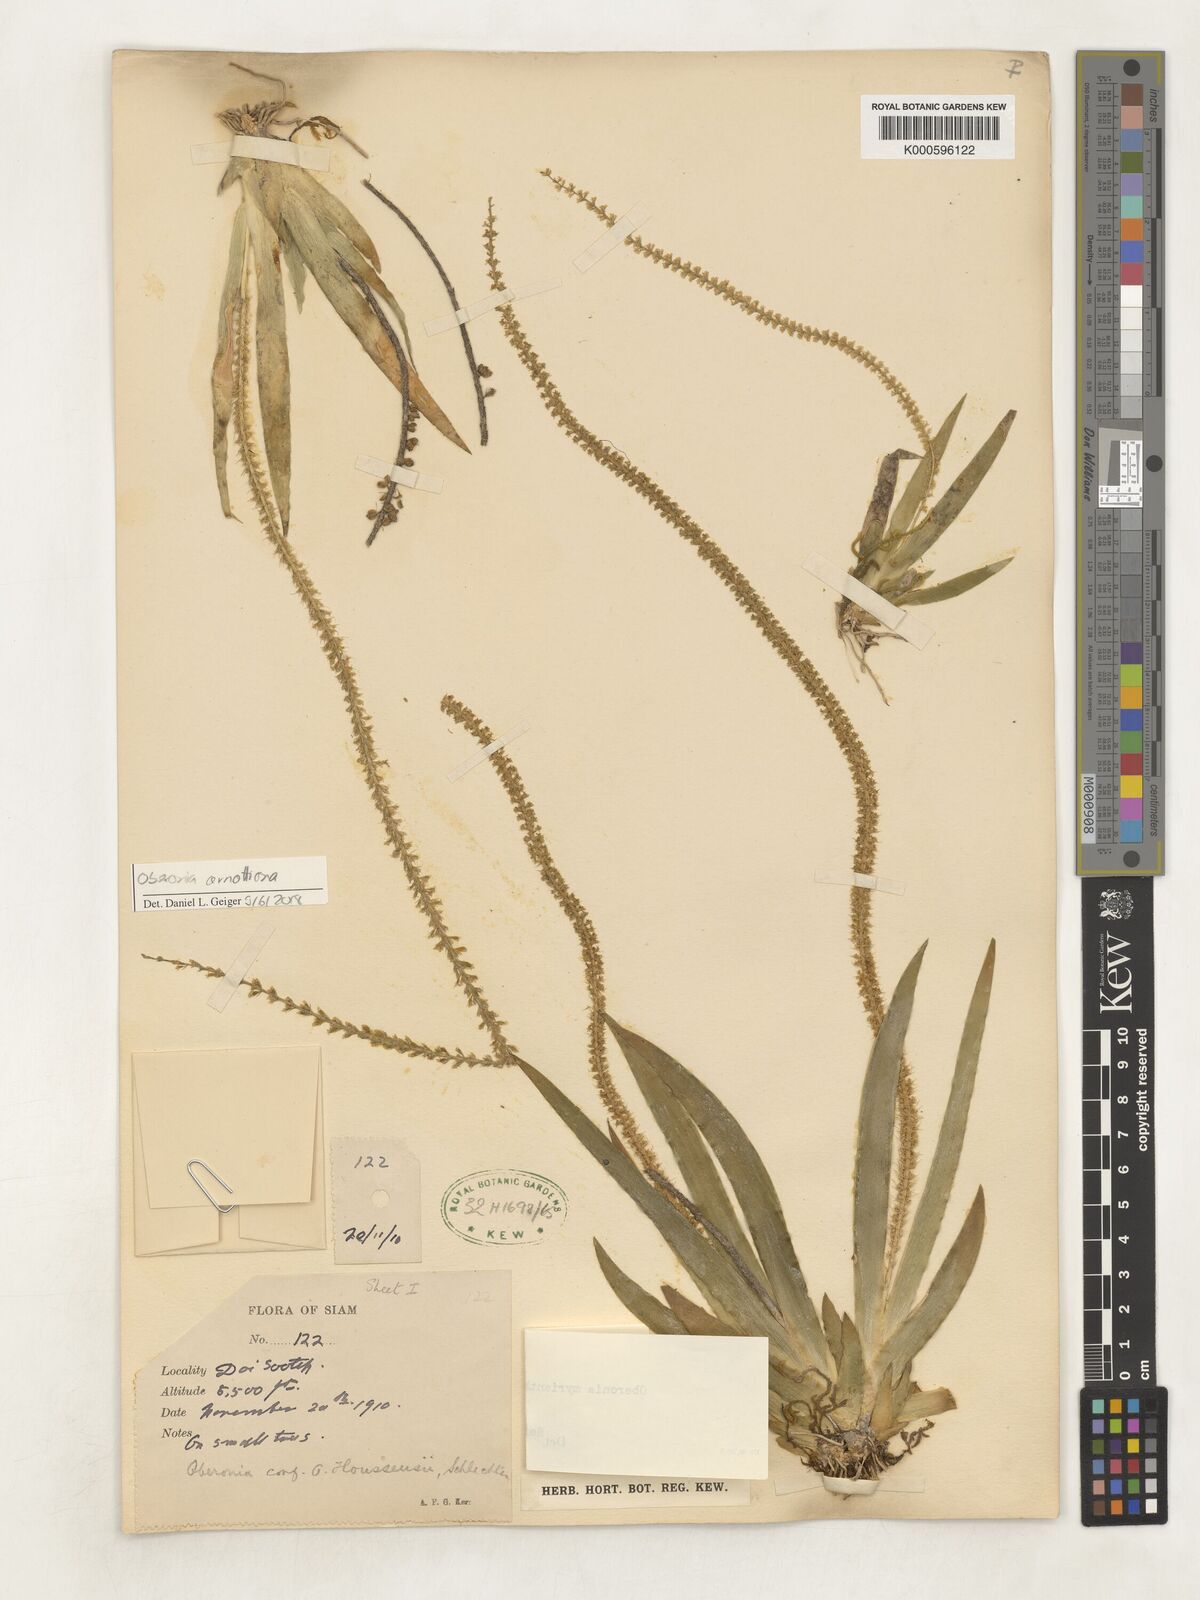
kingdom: Plantae
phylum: Tracheophyta
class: Liliopsida
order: Asparagales
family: Orchidaceae
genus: Oberonia
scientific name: Oberonia acaulis
